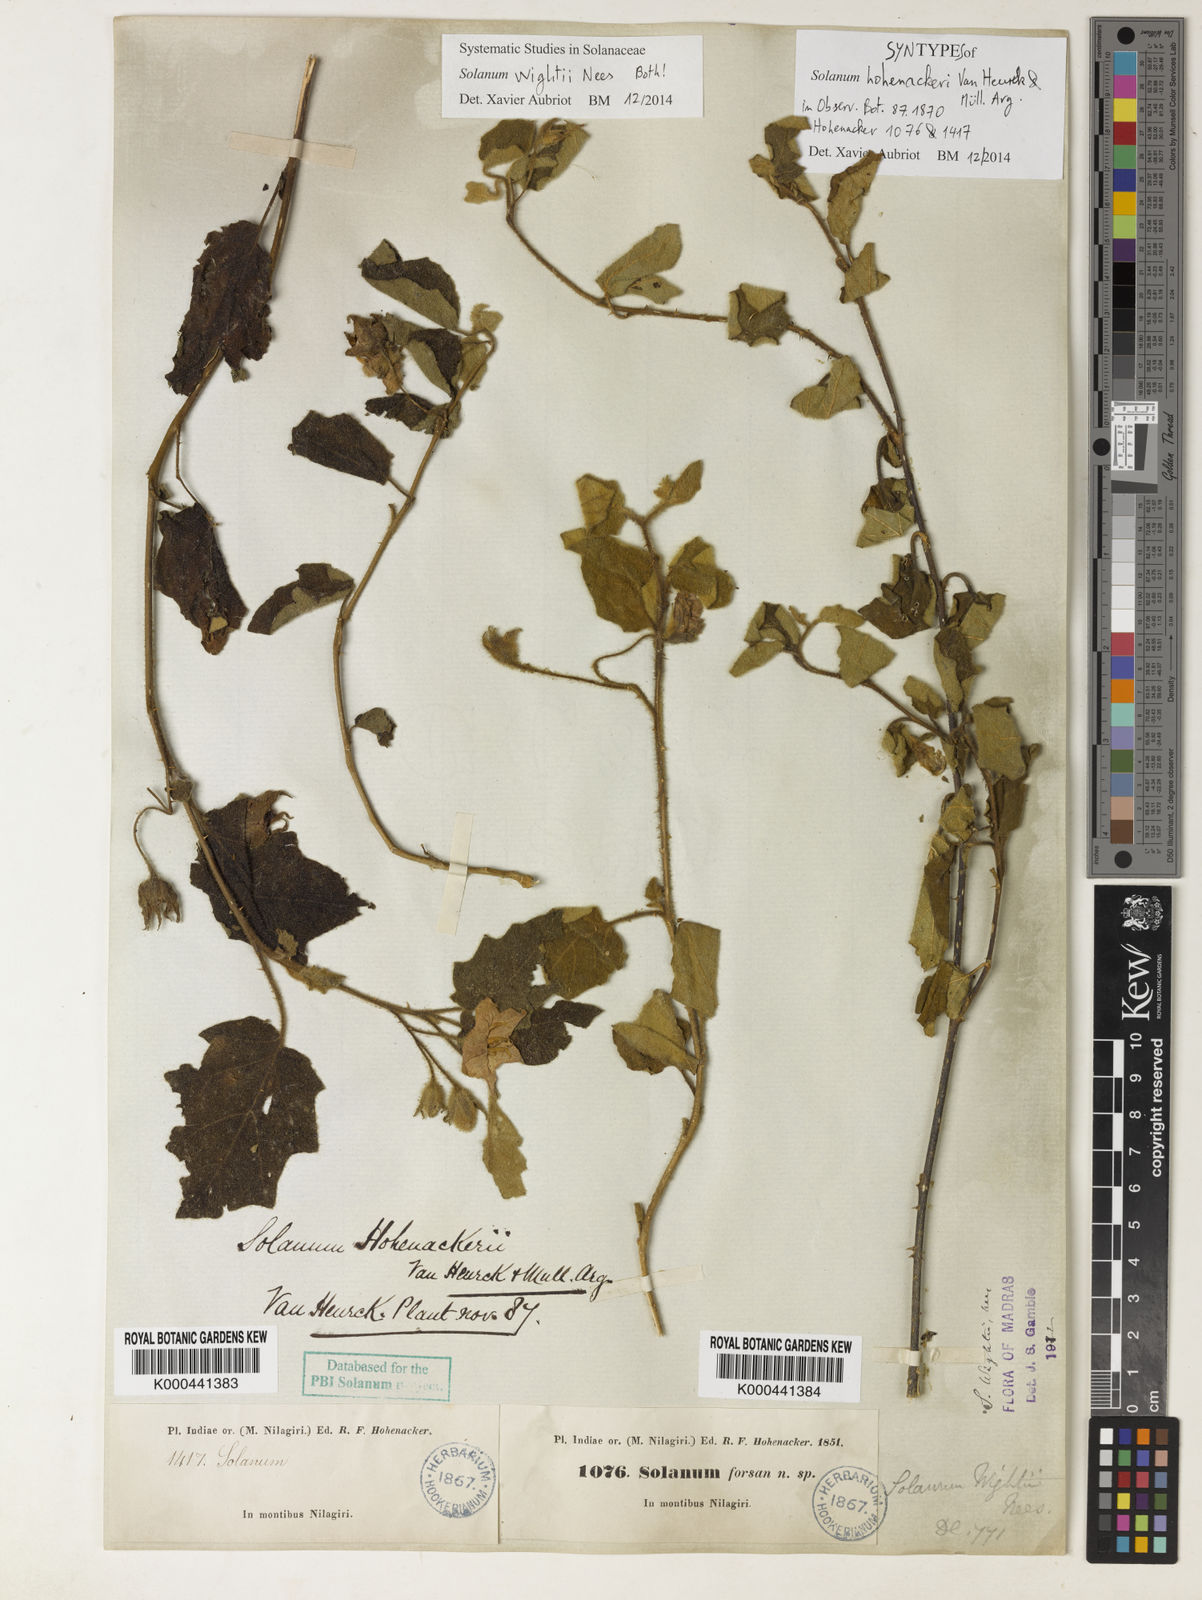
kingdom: Plantae
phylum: Tracheophyta
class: Magnoliopsida
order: Solanales
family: Solanaceae
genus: Solanum
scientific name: Solanum wightii
